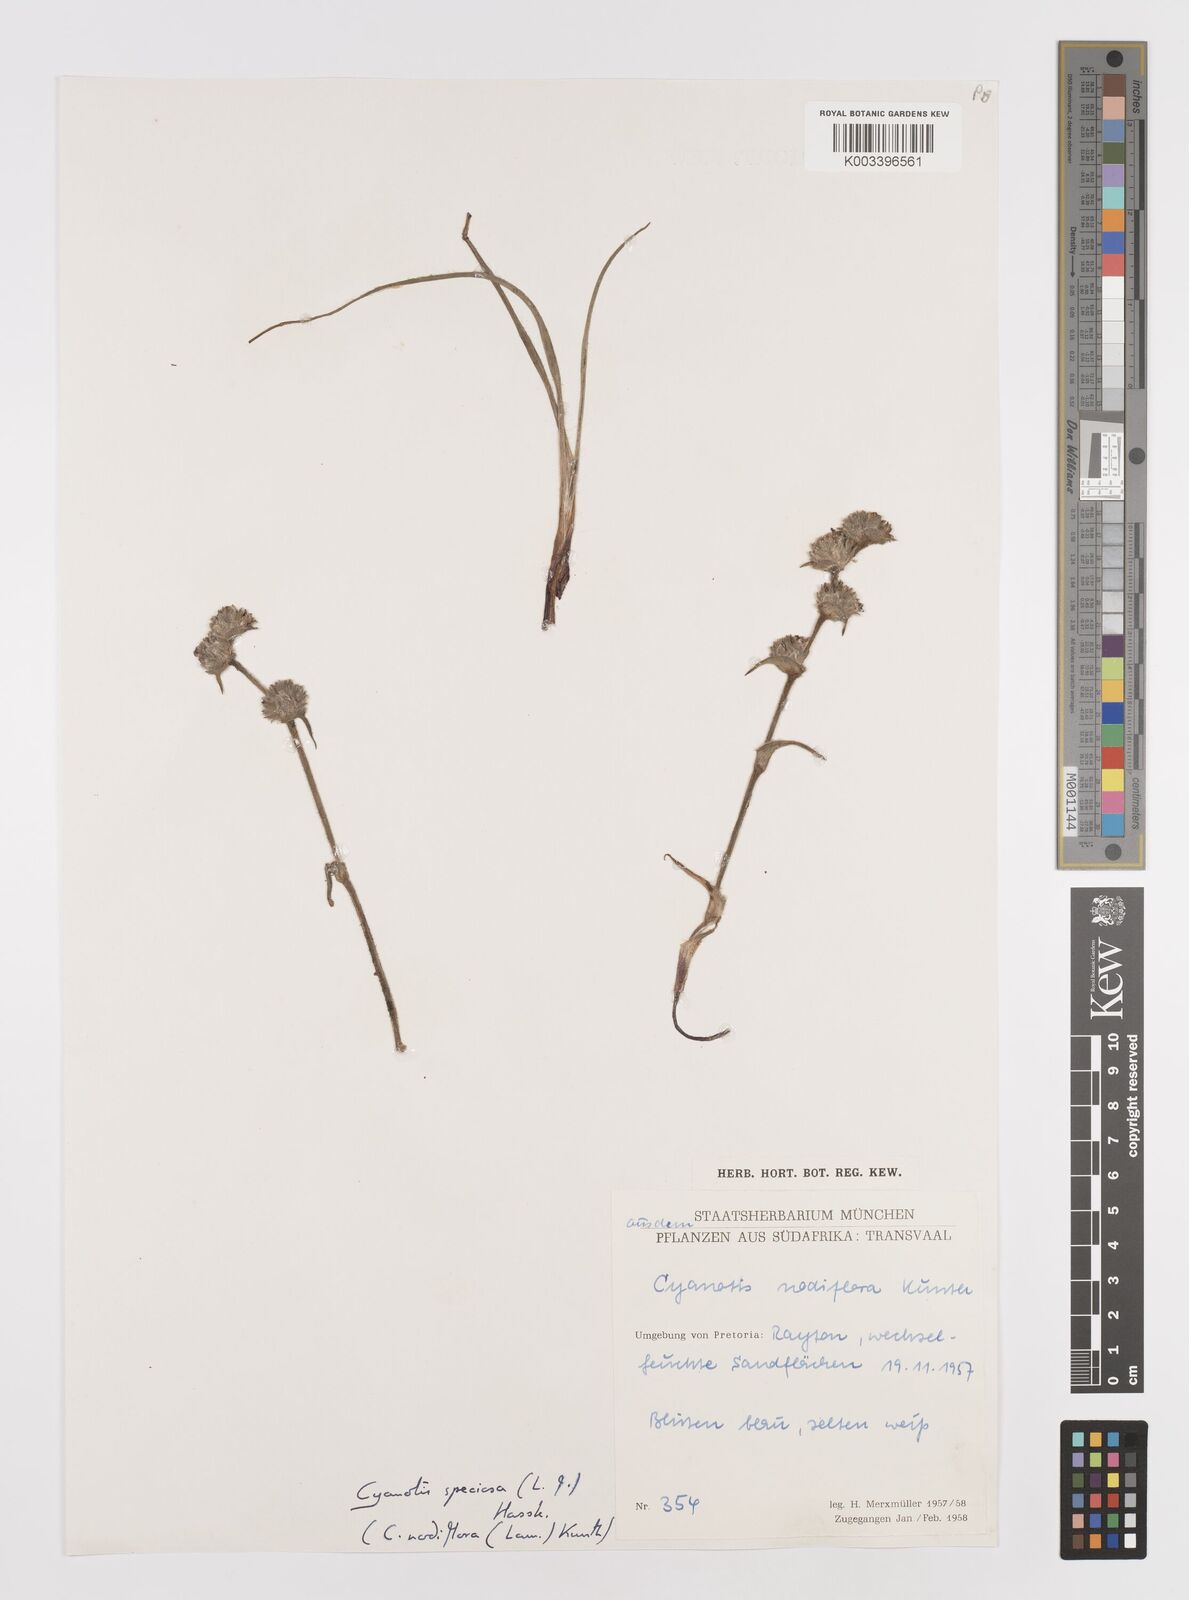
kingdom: Plantae
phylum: Tracheophyta
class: Liliopsida
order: Commelinales
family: Commelinaceae
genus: Cyanotis
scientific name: Cyanotis speciosa
